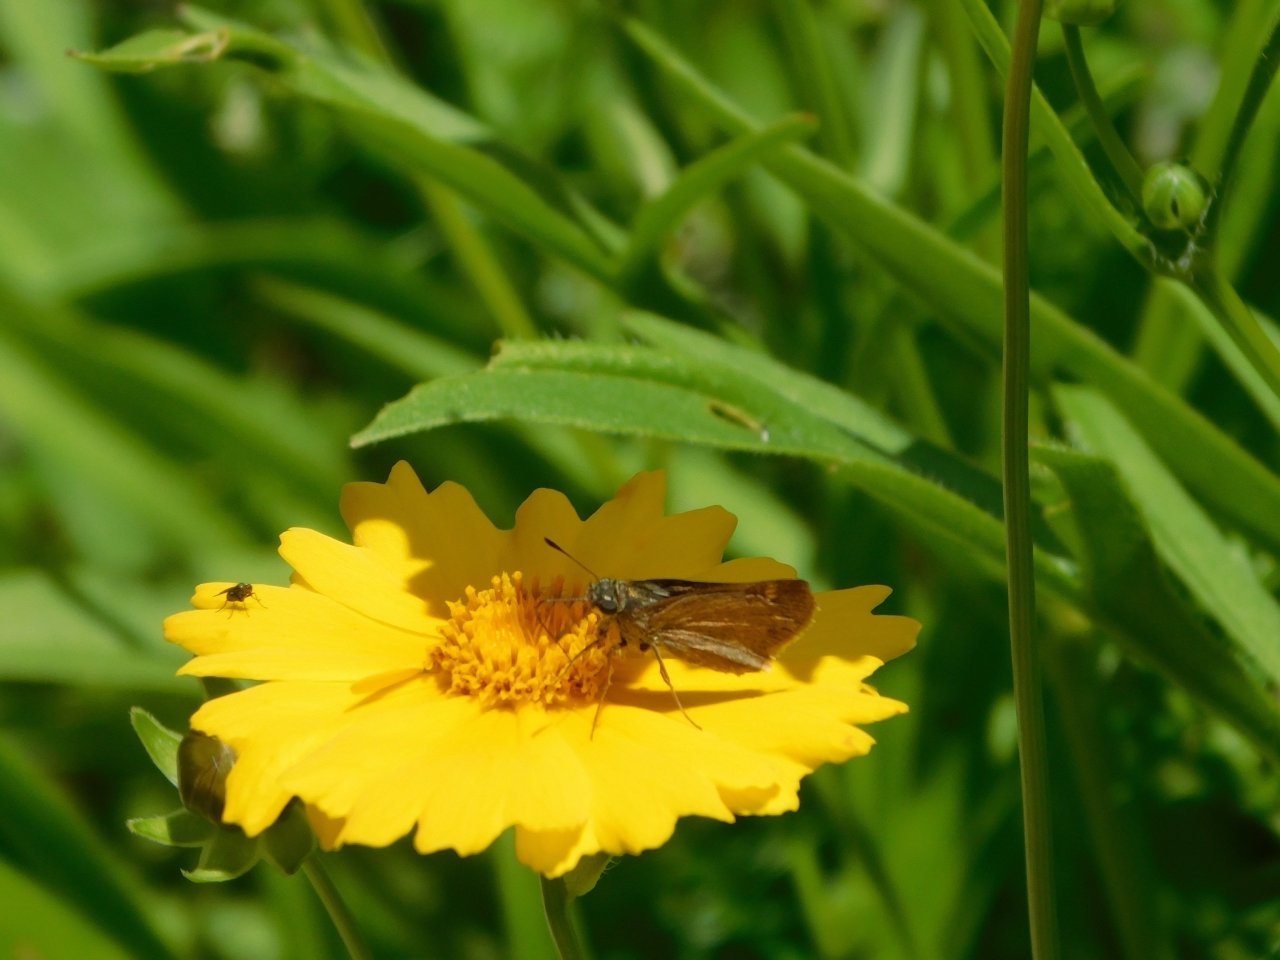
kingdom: Animalia
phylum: Arthropoda
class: Insecta
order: Lepidoptera
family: Hesperiidae
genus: Euphyes
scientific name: Euphyes conspicua
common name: Black Dash
